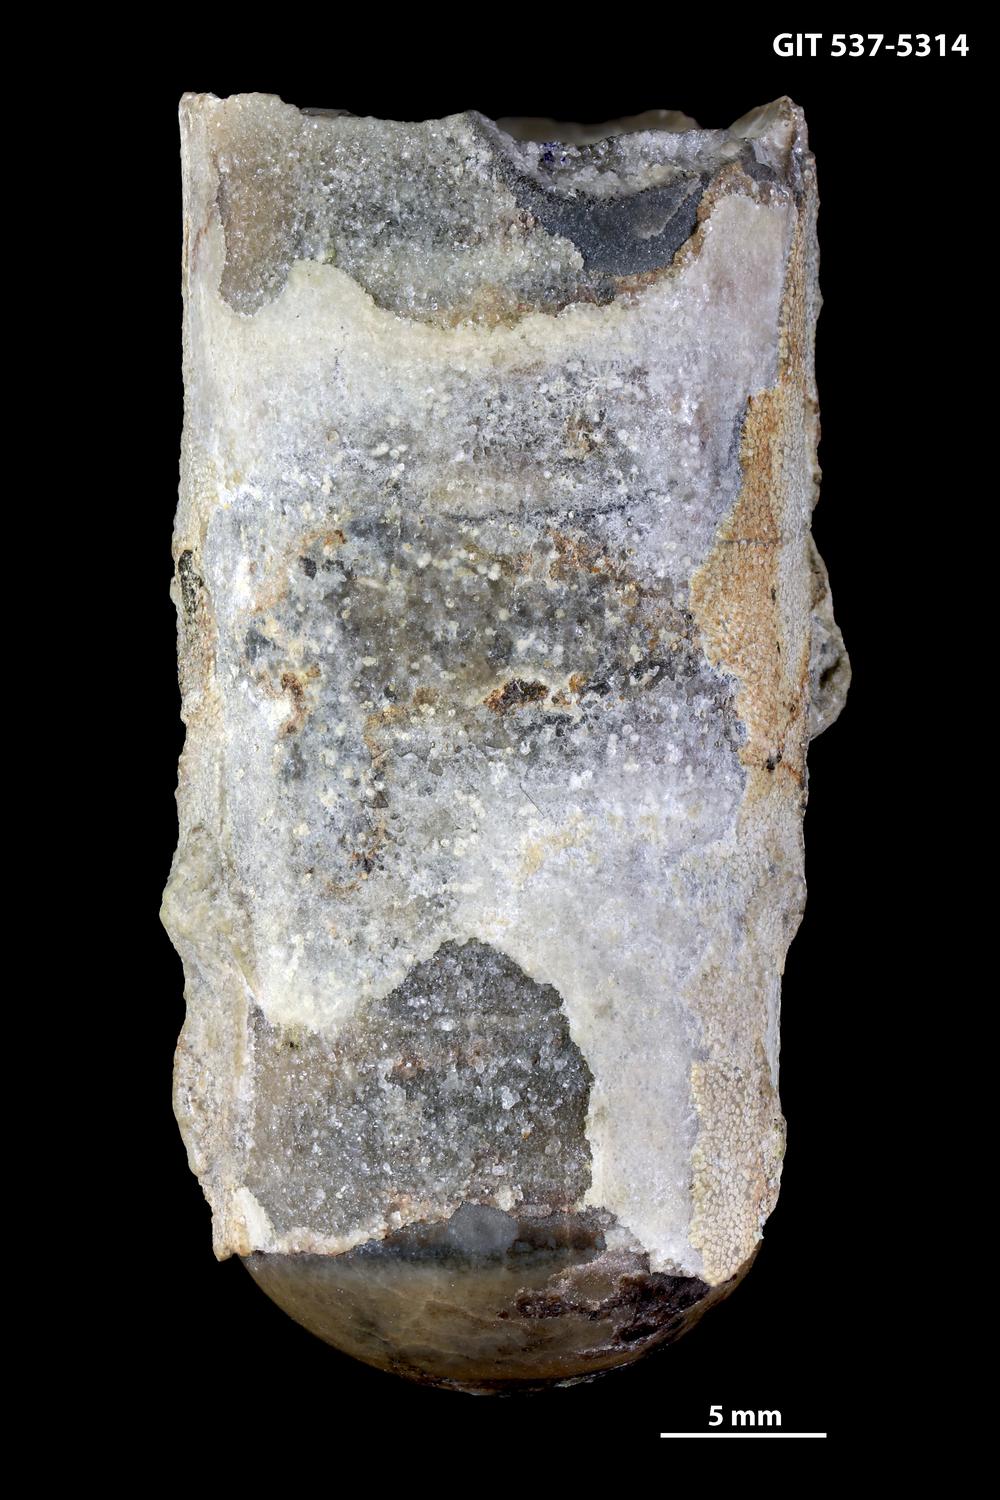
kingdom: Animalia
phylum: Mollusca
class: Cephalopoda
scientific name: Cephalopoda
